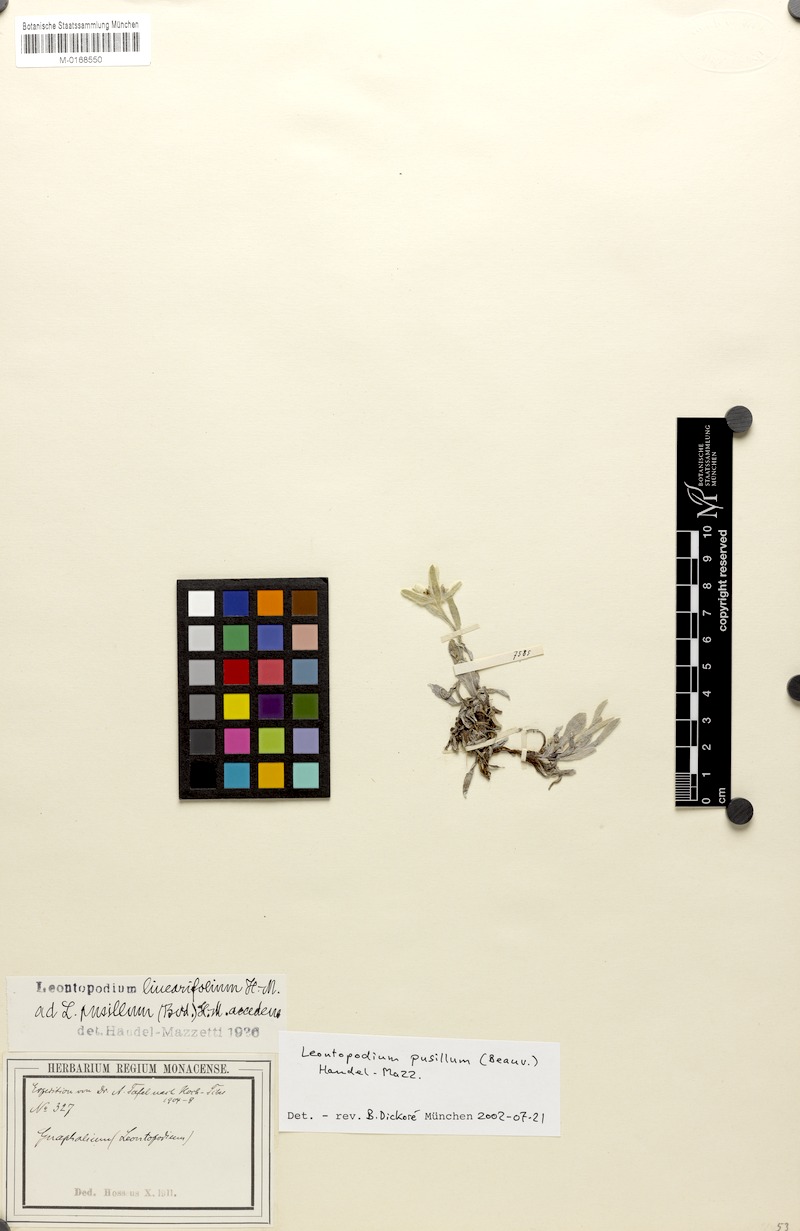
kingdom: Plantae
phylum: Tracheophyta
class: Magnoliopsida
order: Asterales
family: Asteraceae
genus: Leontopodium
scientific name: Leontopodium pusillum
